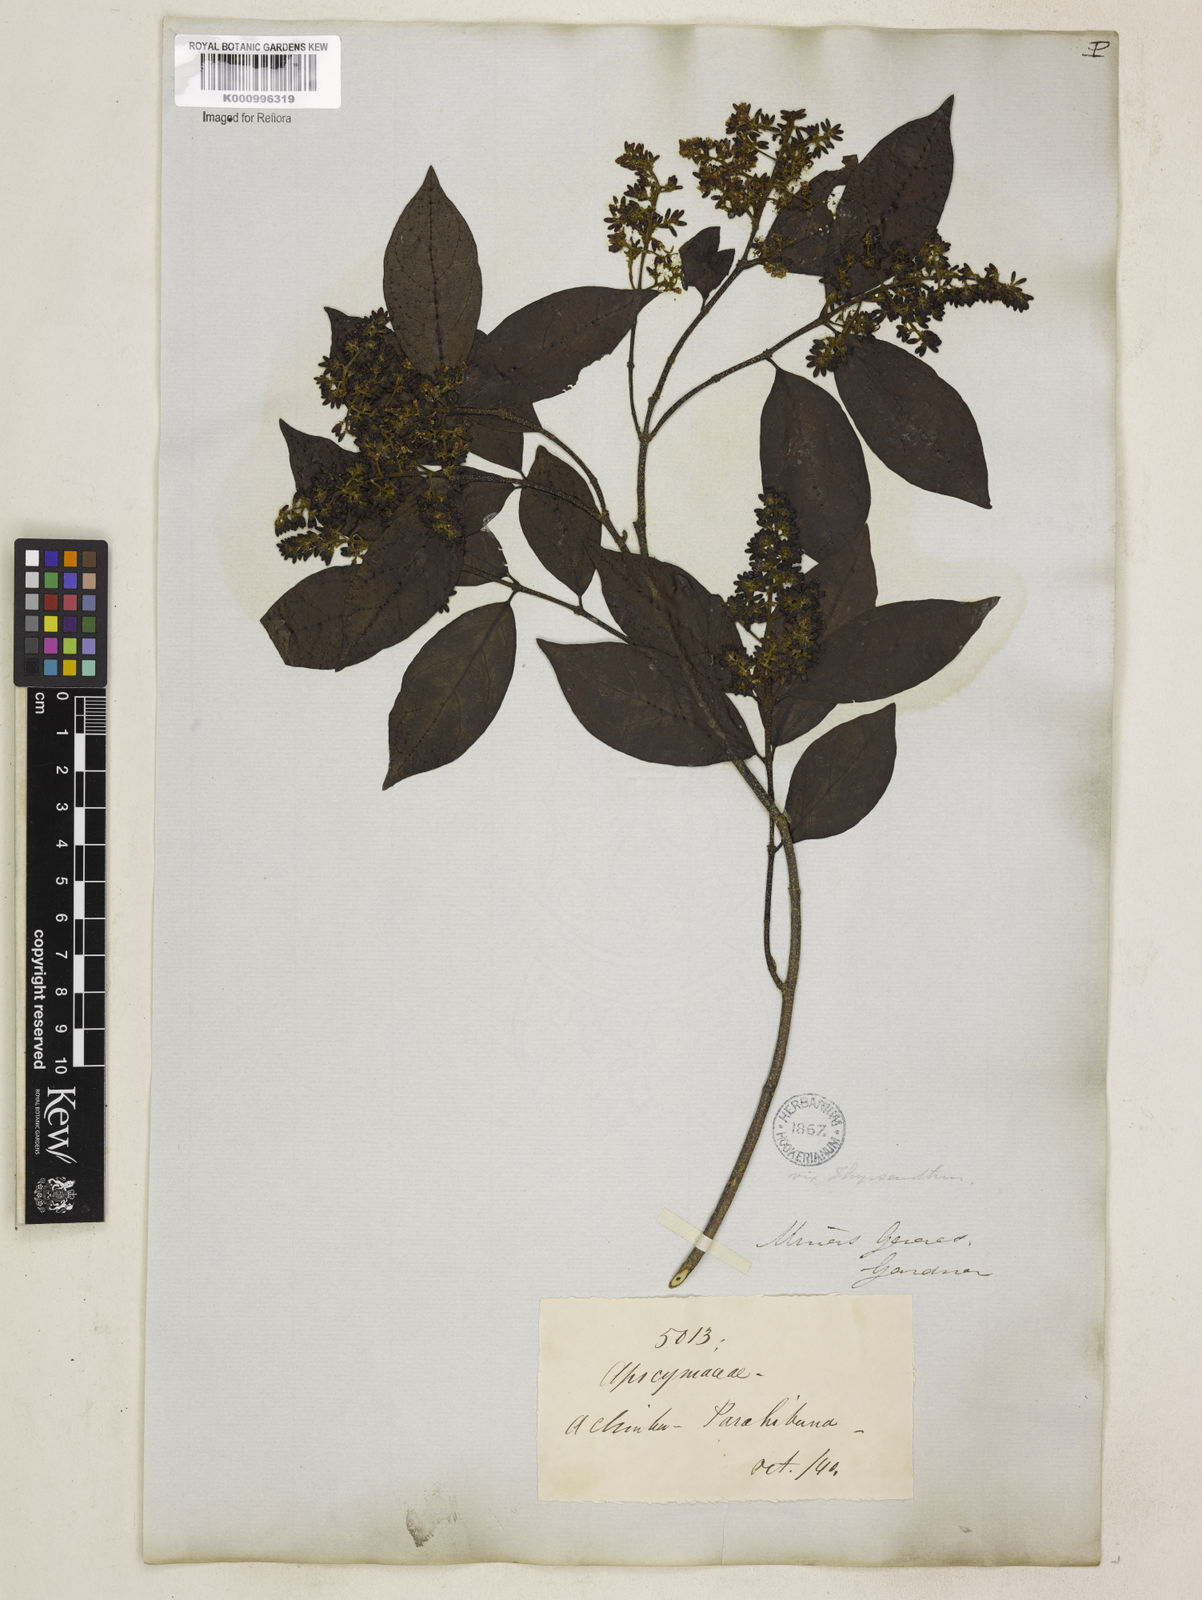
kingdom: Plantae
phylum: Tracheophyta
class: Magnoliopsida
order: Gentianales
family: Apocynaceae
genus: Forsteronia
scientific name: Forsteronia
